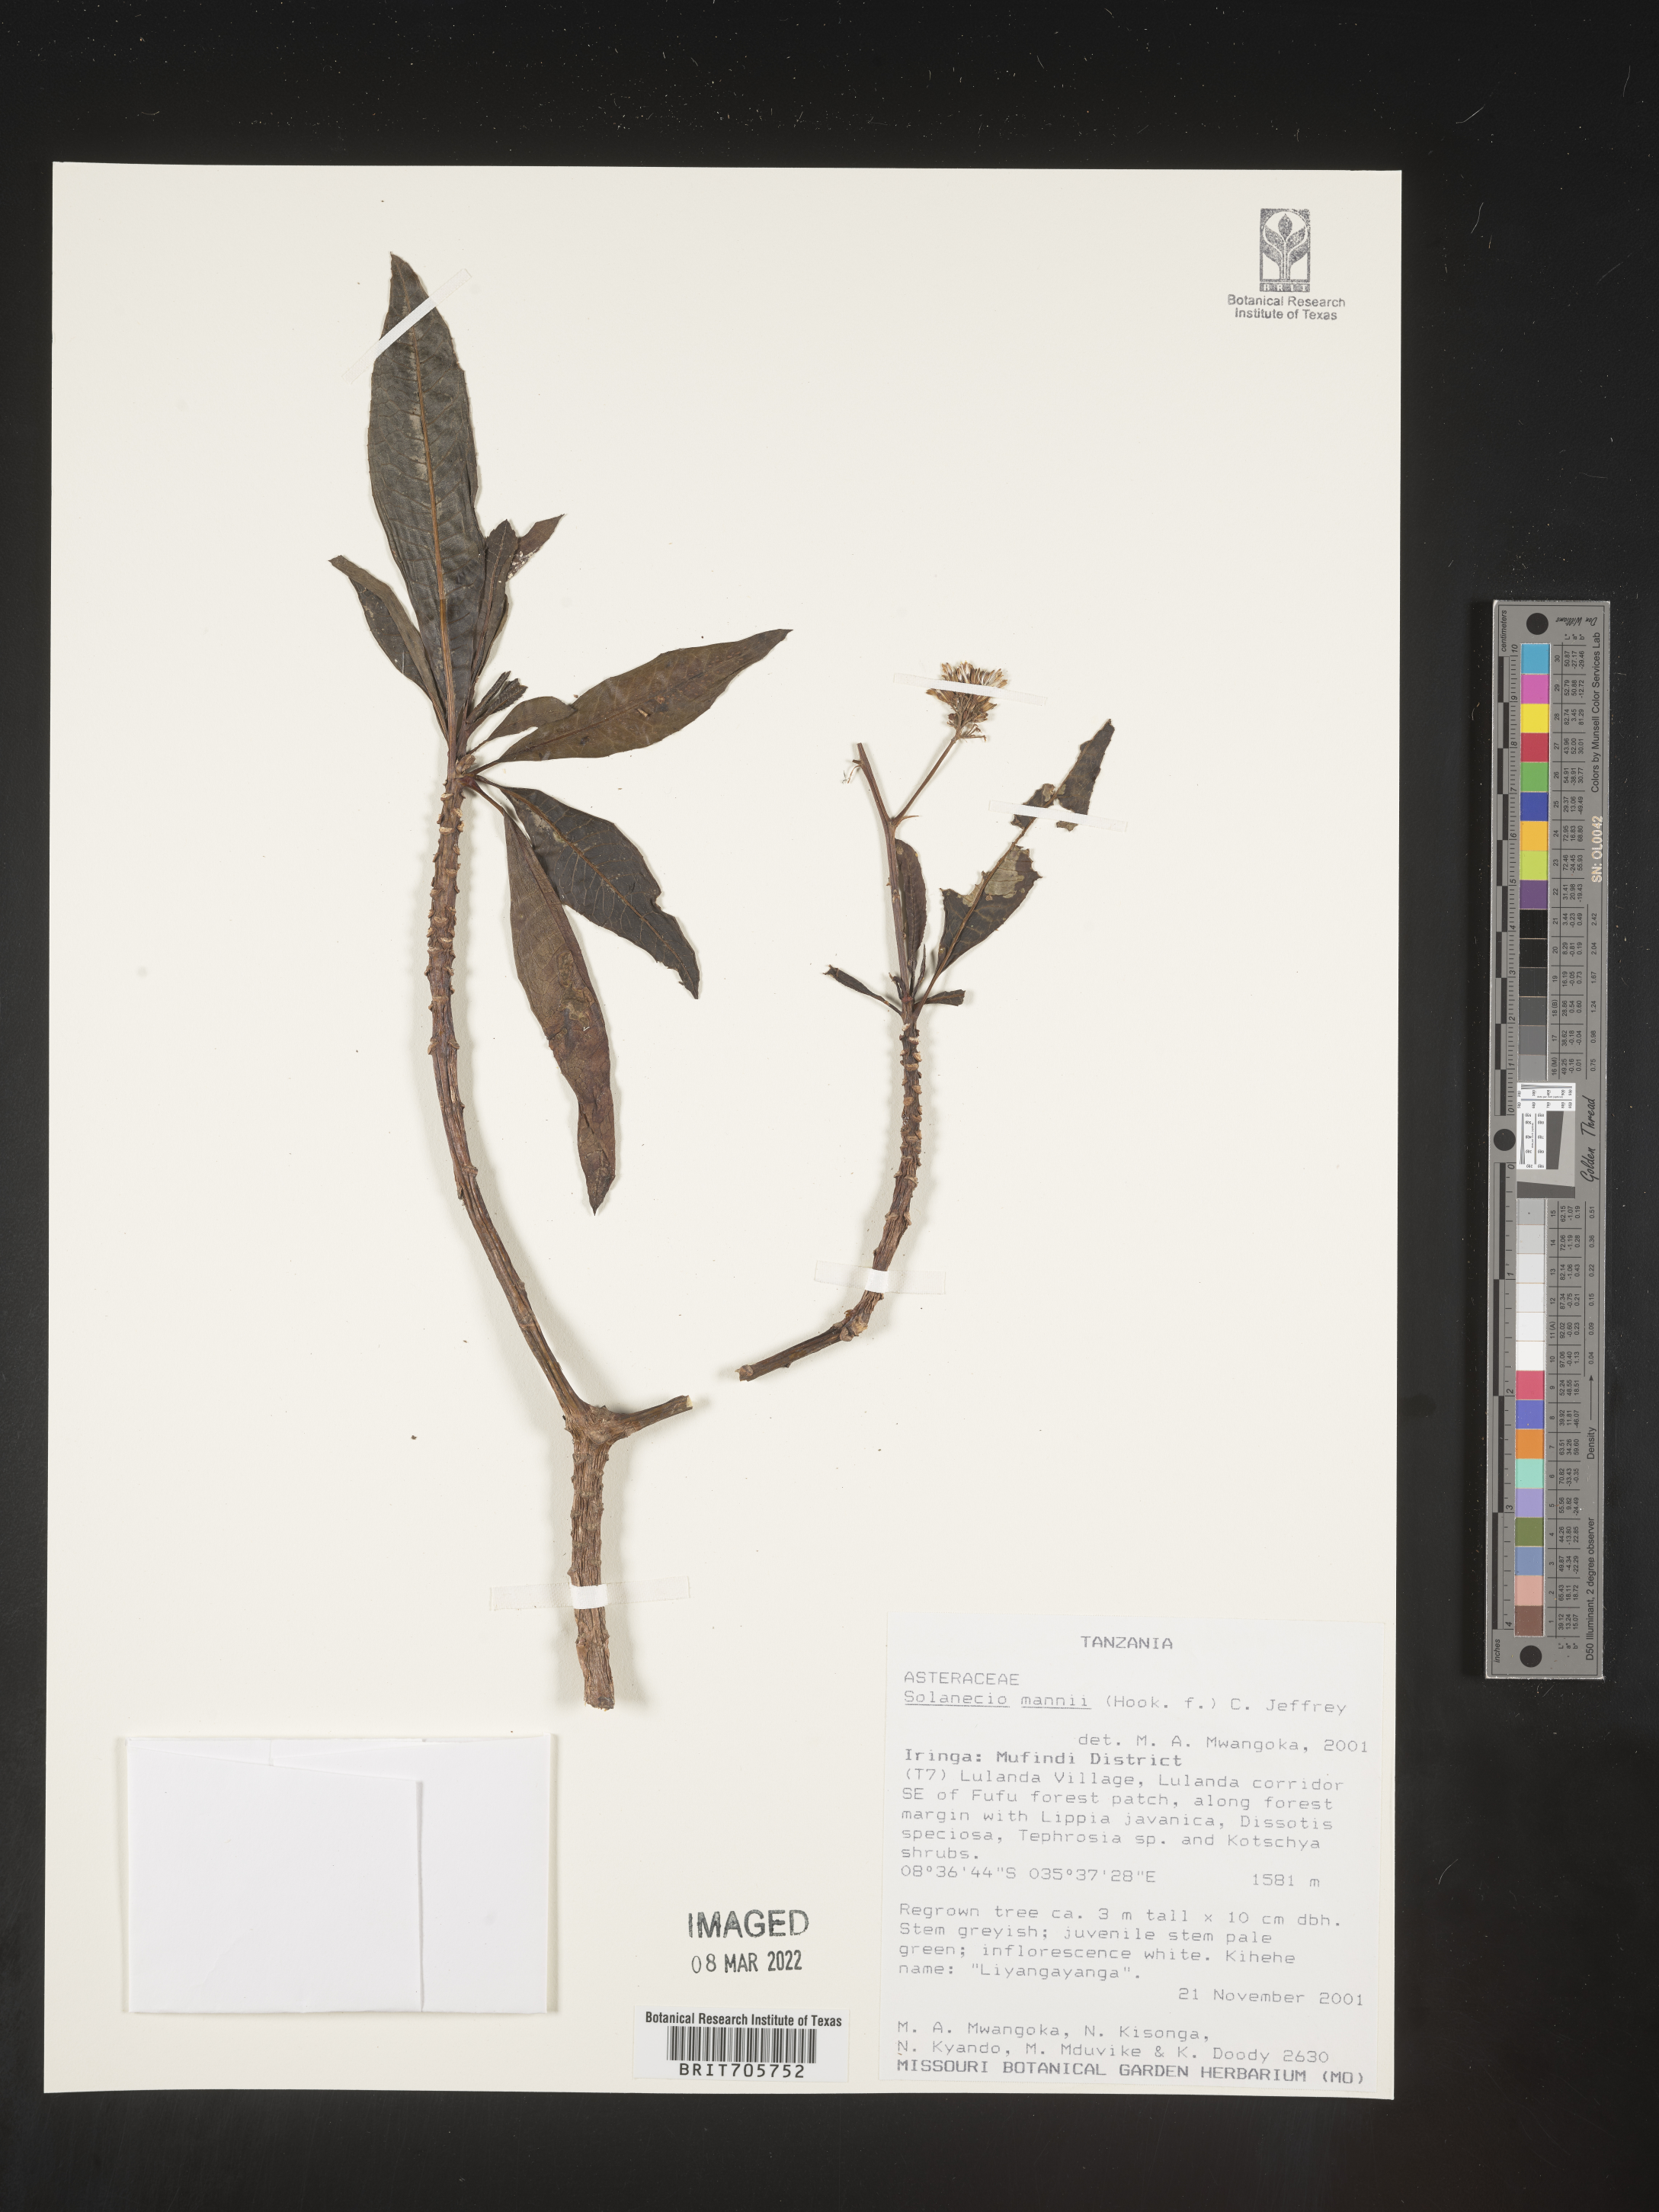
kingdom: Plantae
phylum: Tracheophyta
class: Magnoliopsida
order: Asterales
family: Asteraceae
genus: Solanecio
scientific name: Solanecio
